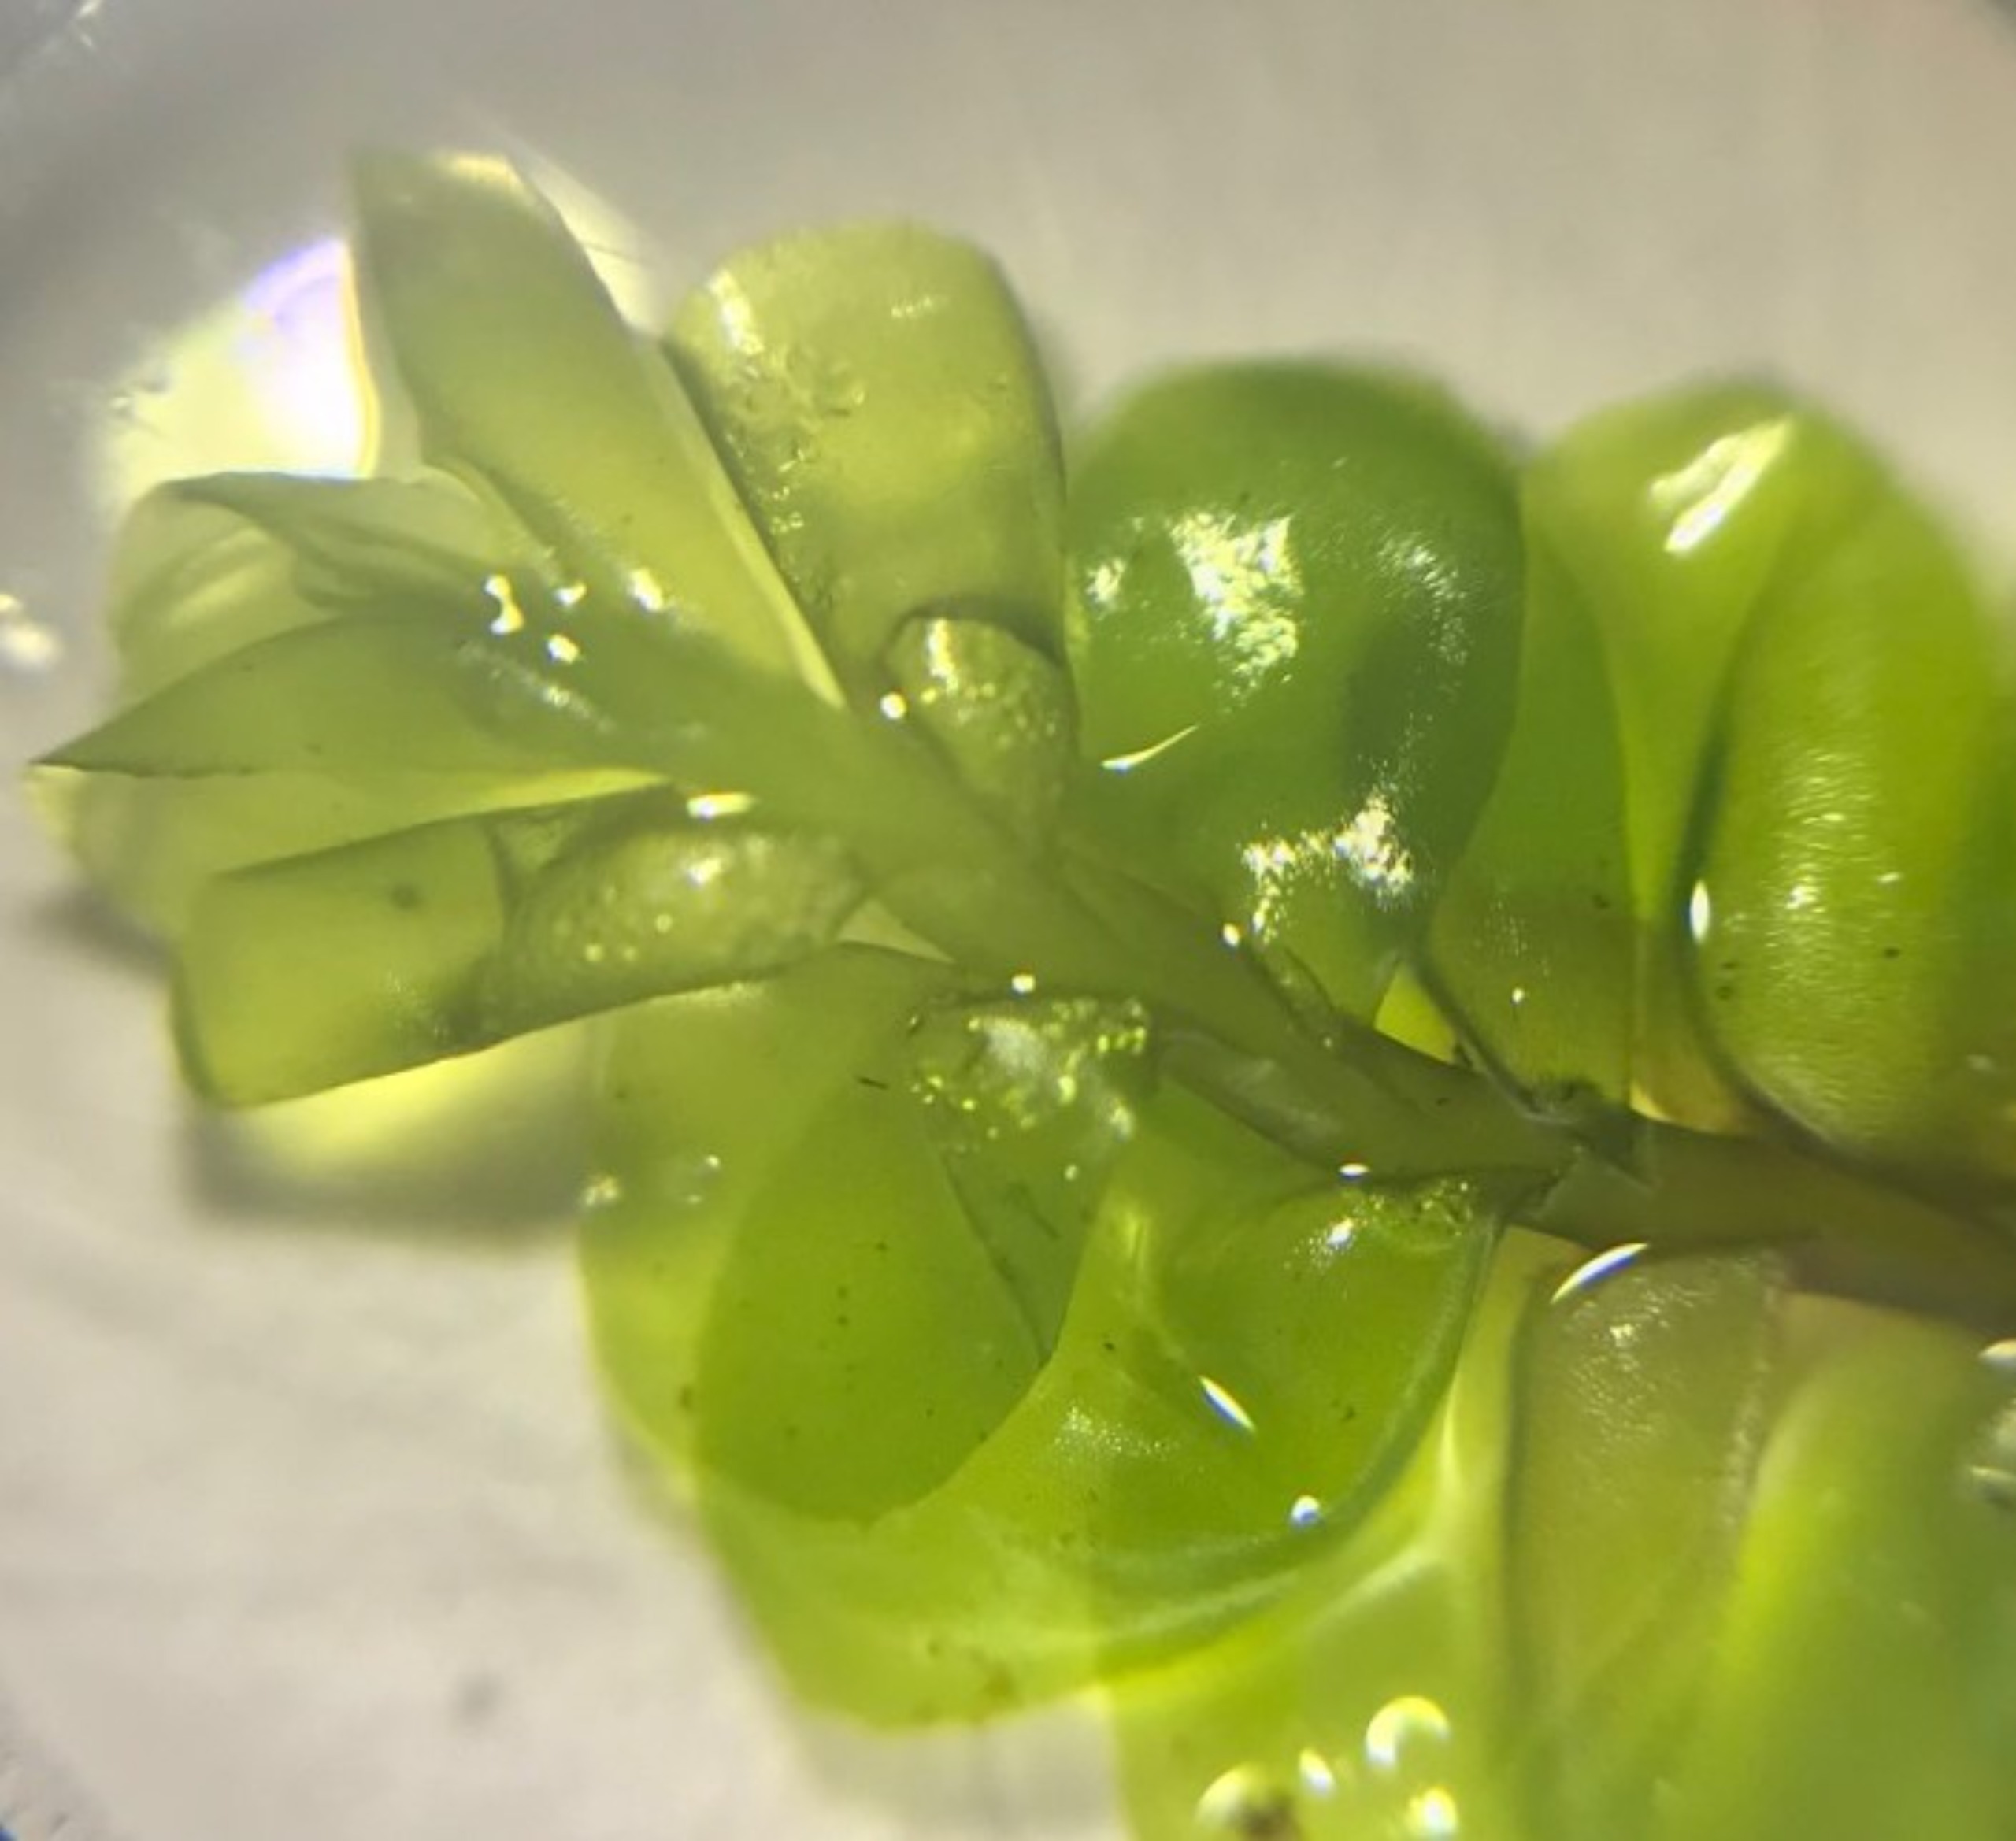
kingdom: Plantae
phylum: Marchantiophyta
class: Jungermanniopsida
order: Jungermanniales
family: Plagiochilaceae
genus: Plagiochila
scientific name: Plagiochila asplenioides
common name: Radeløv-hindeblad
